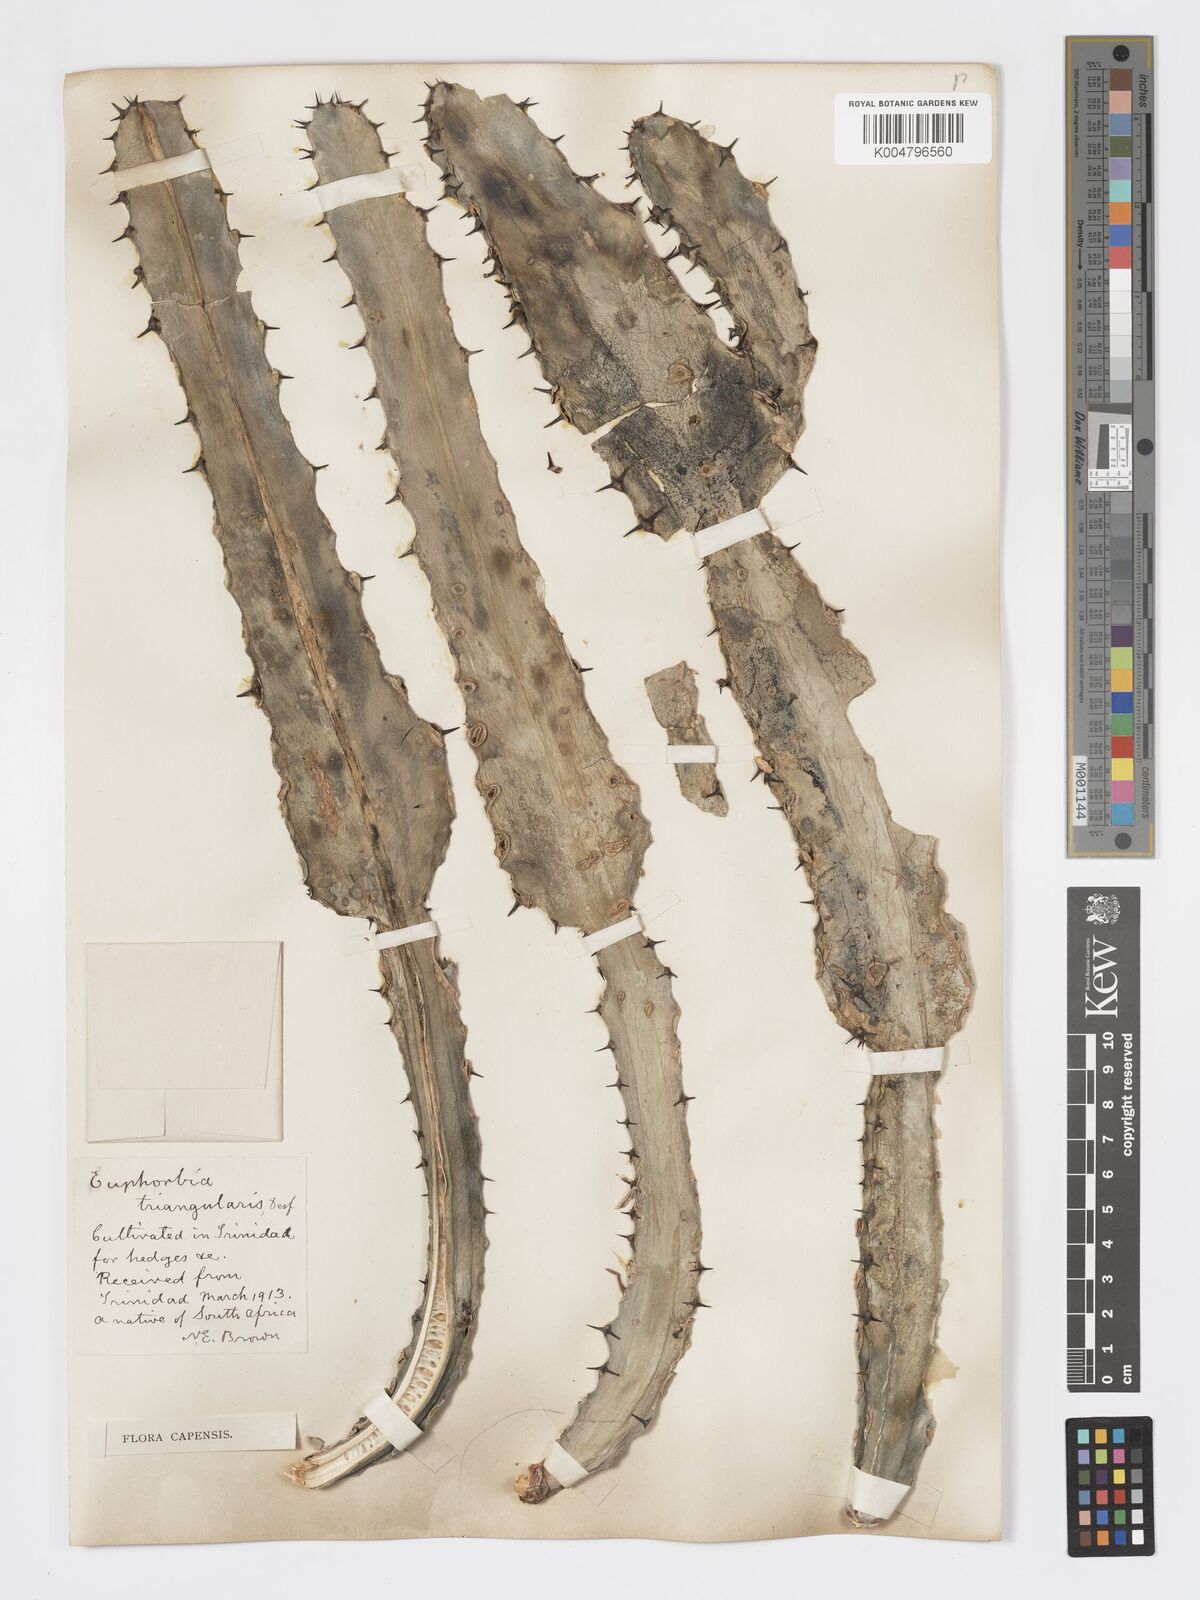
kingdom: Plantae
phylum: Tracheophyta
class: Magnoliopsida
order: Malpighiales
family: Euphorbiaceae
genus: Euphorbia
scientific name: Euphorbia triangularis
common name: Chandelier tree
